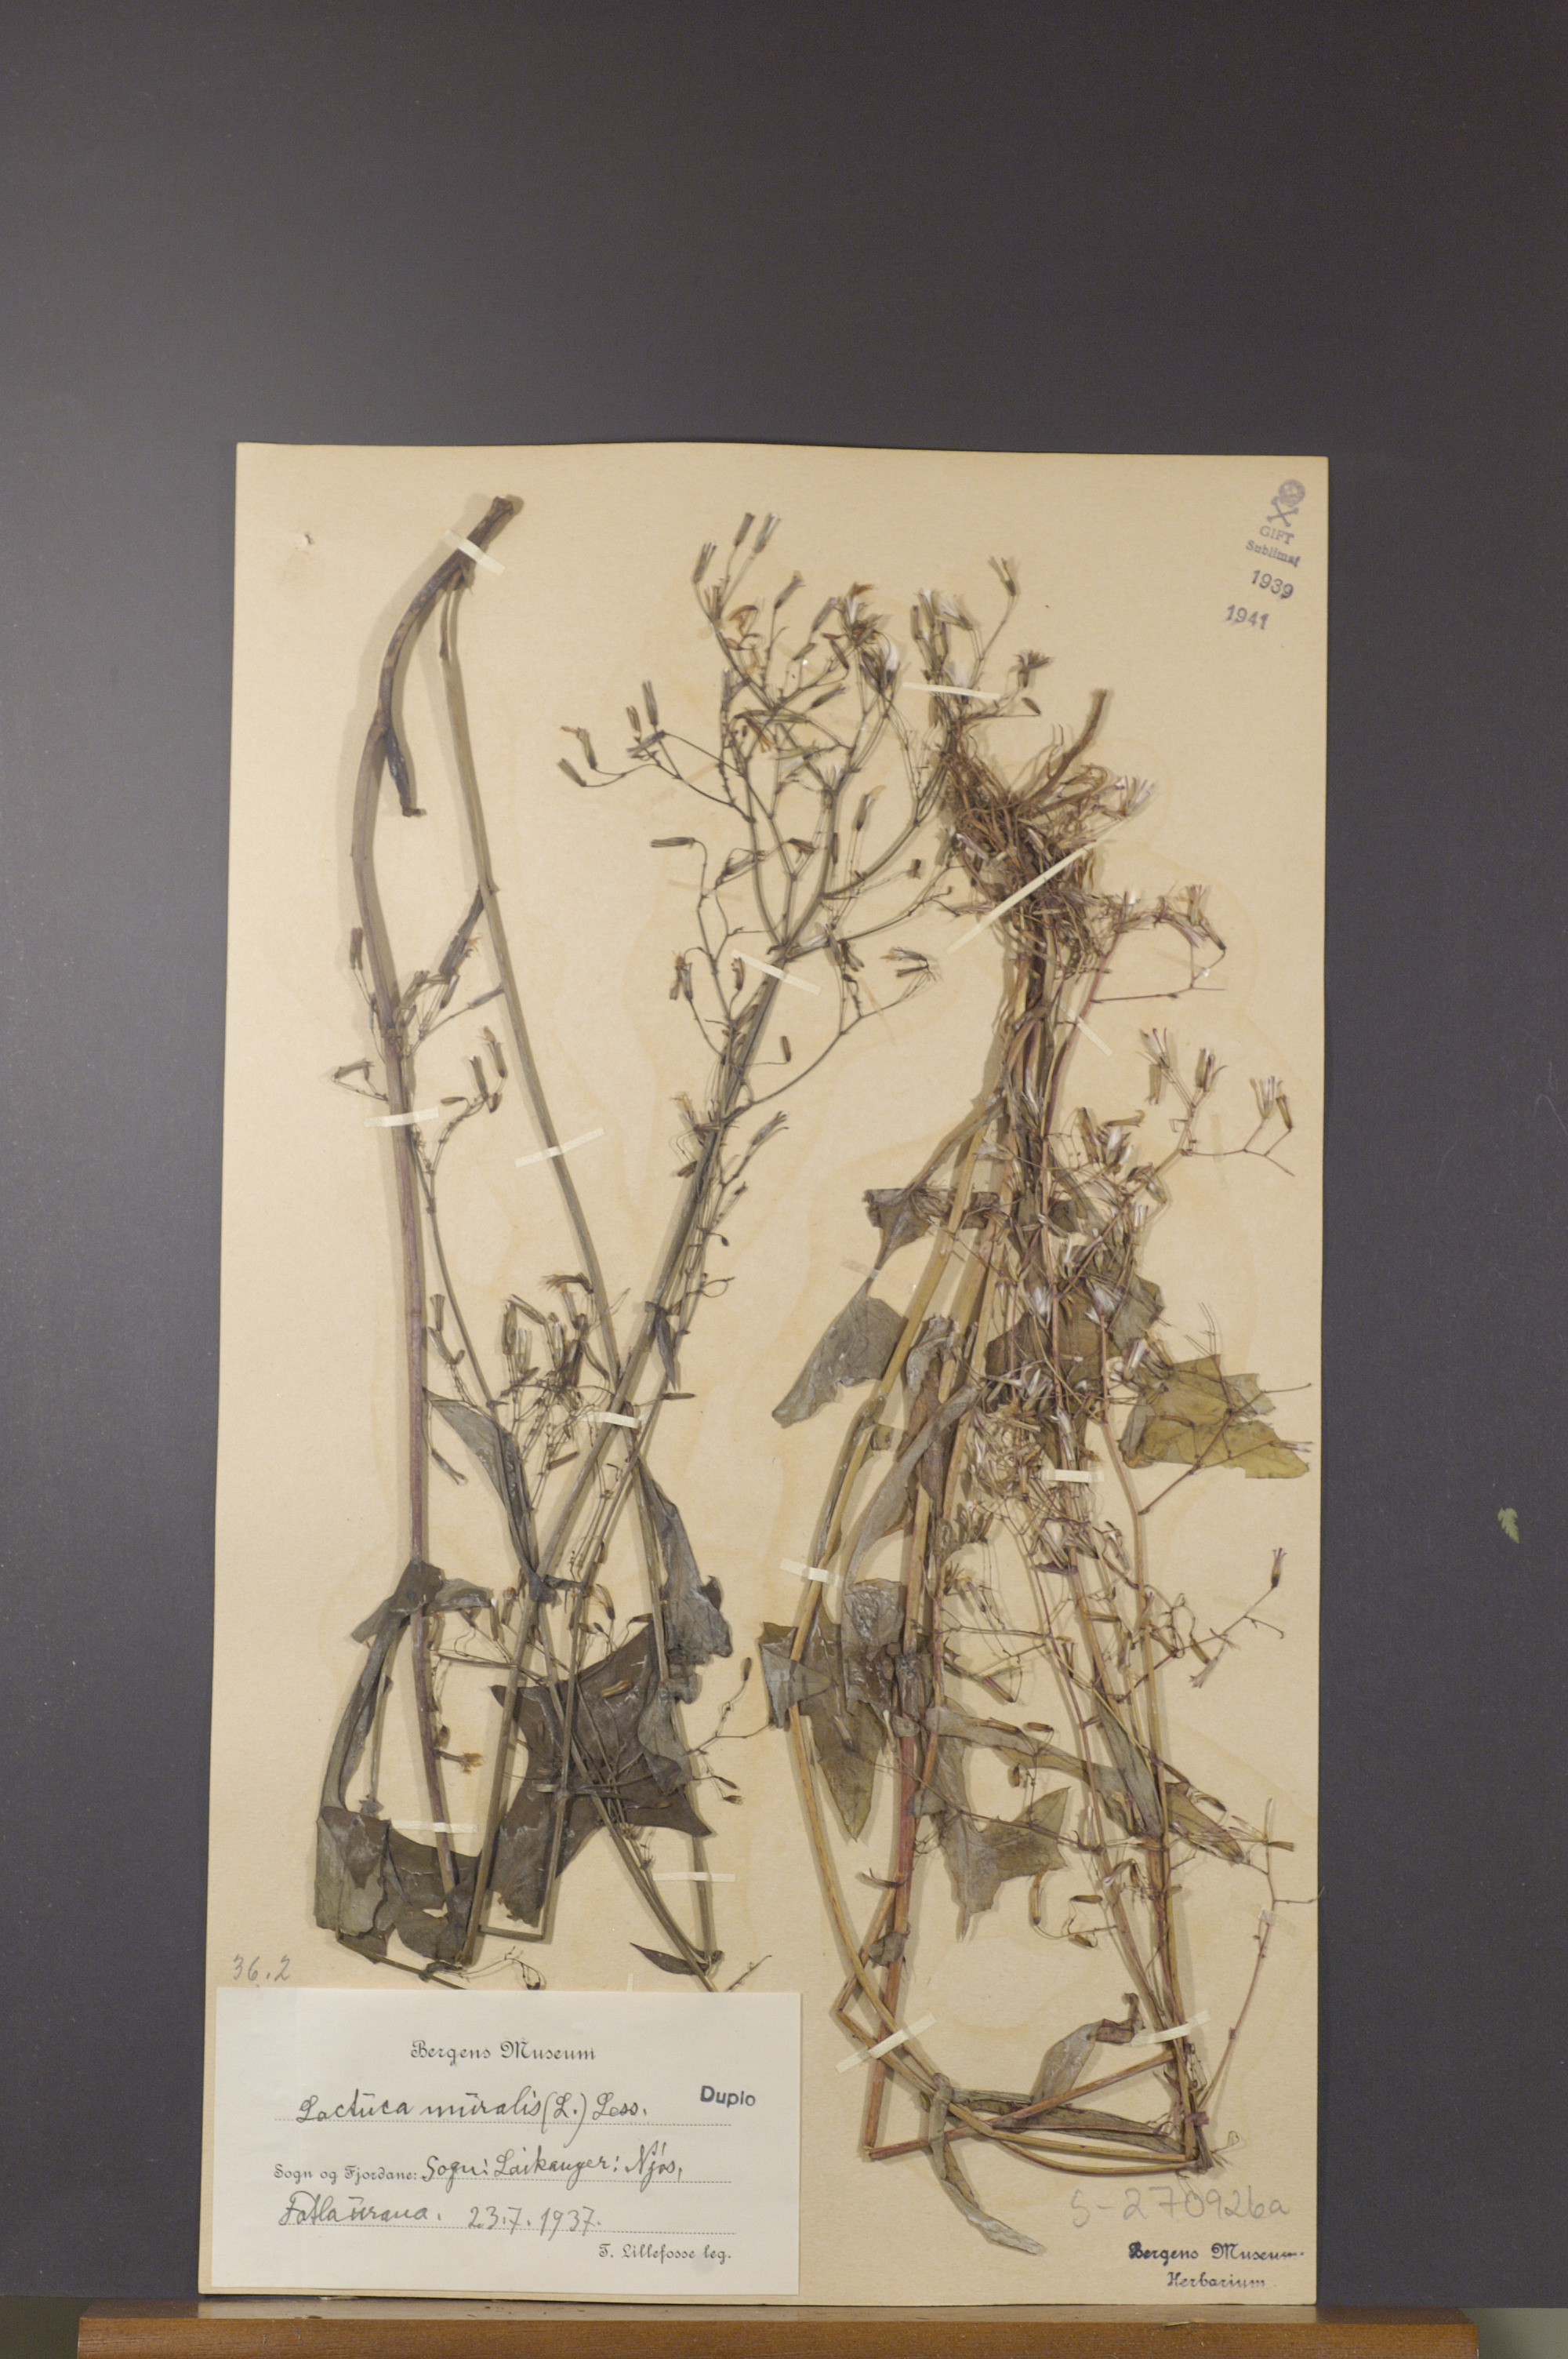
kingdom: Plantae
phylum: Tracheophyta
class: Magnoliopsida
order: Asterales
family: Asteraceae
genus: Mycelis
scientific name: Mycelis muralis
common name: Wall lettuce
